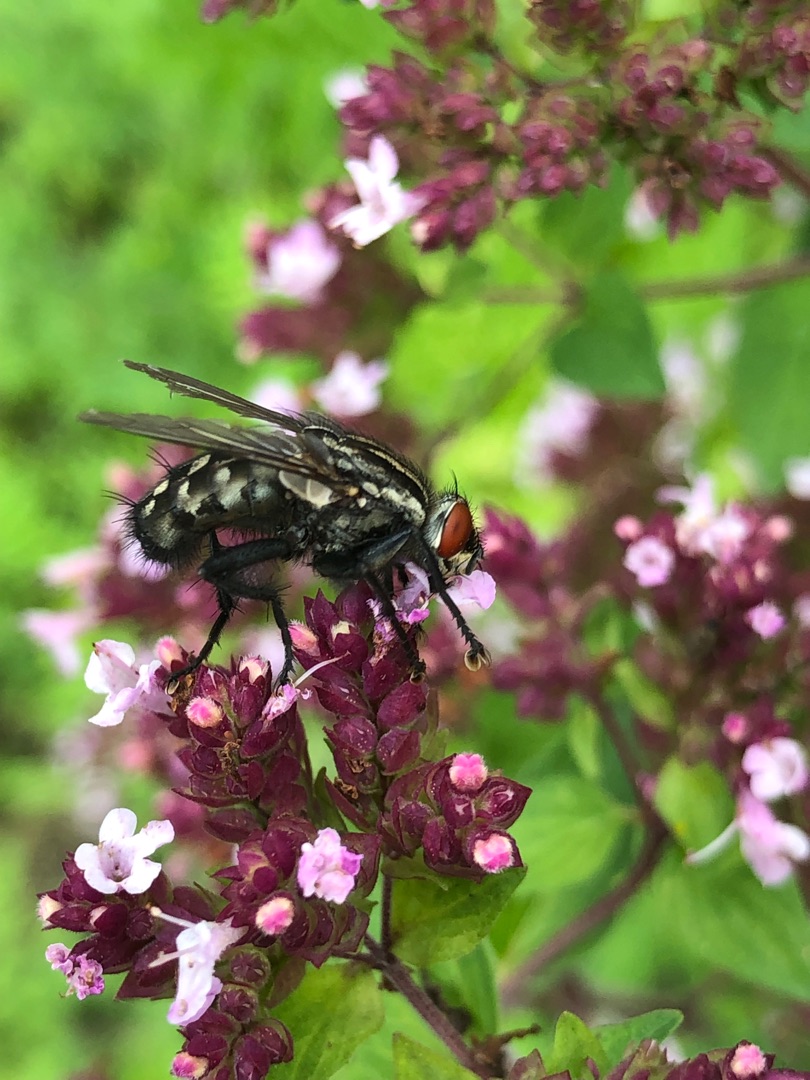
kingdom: Animalia
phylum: Arthropoda
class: Insecta
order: Diptera
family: Sarcophagidae
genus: Sarcophaga
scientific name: Sarcophaga
